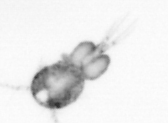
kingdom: Animalia
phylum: Arthropoda
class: Copepoda
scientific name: Copepoda
